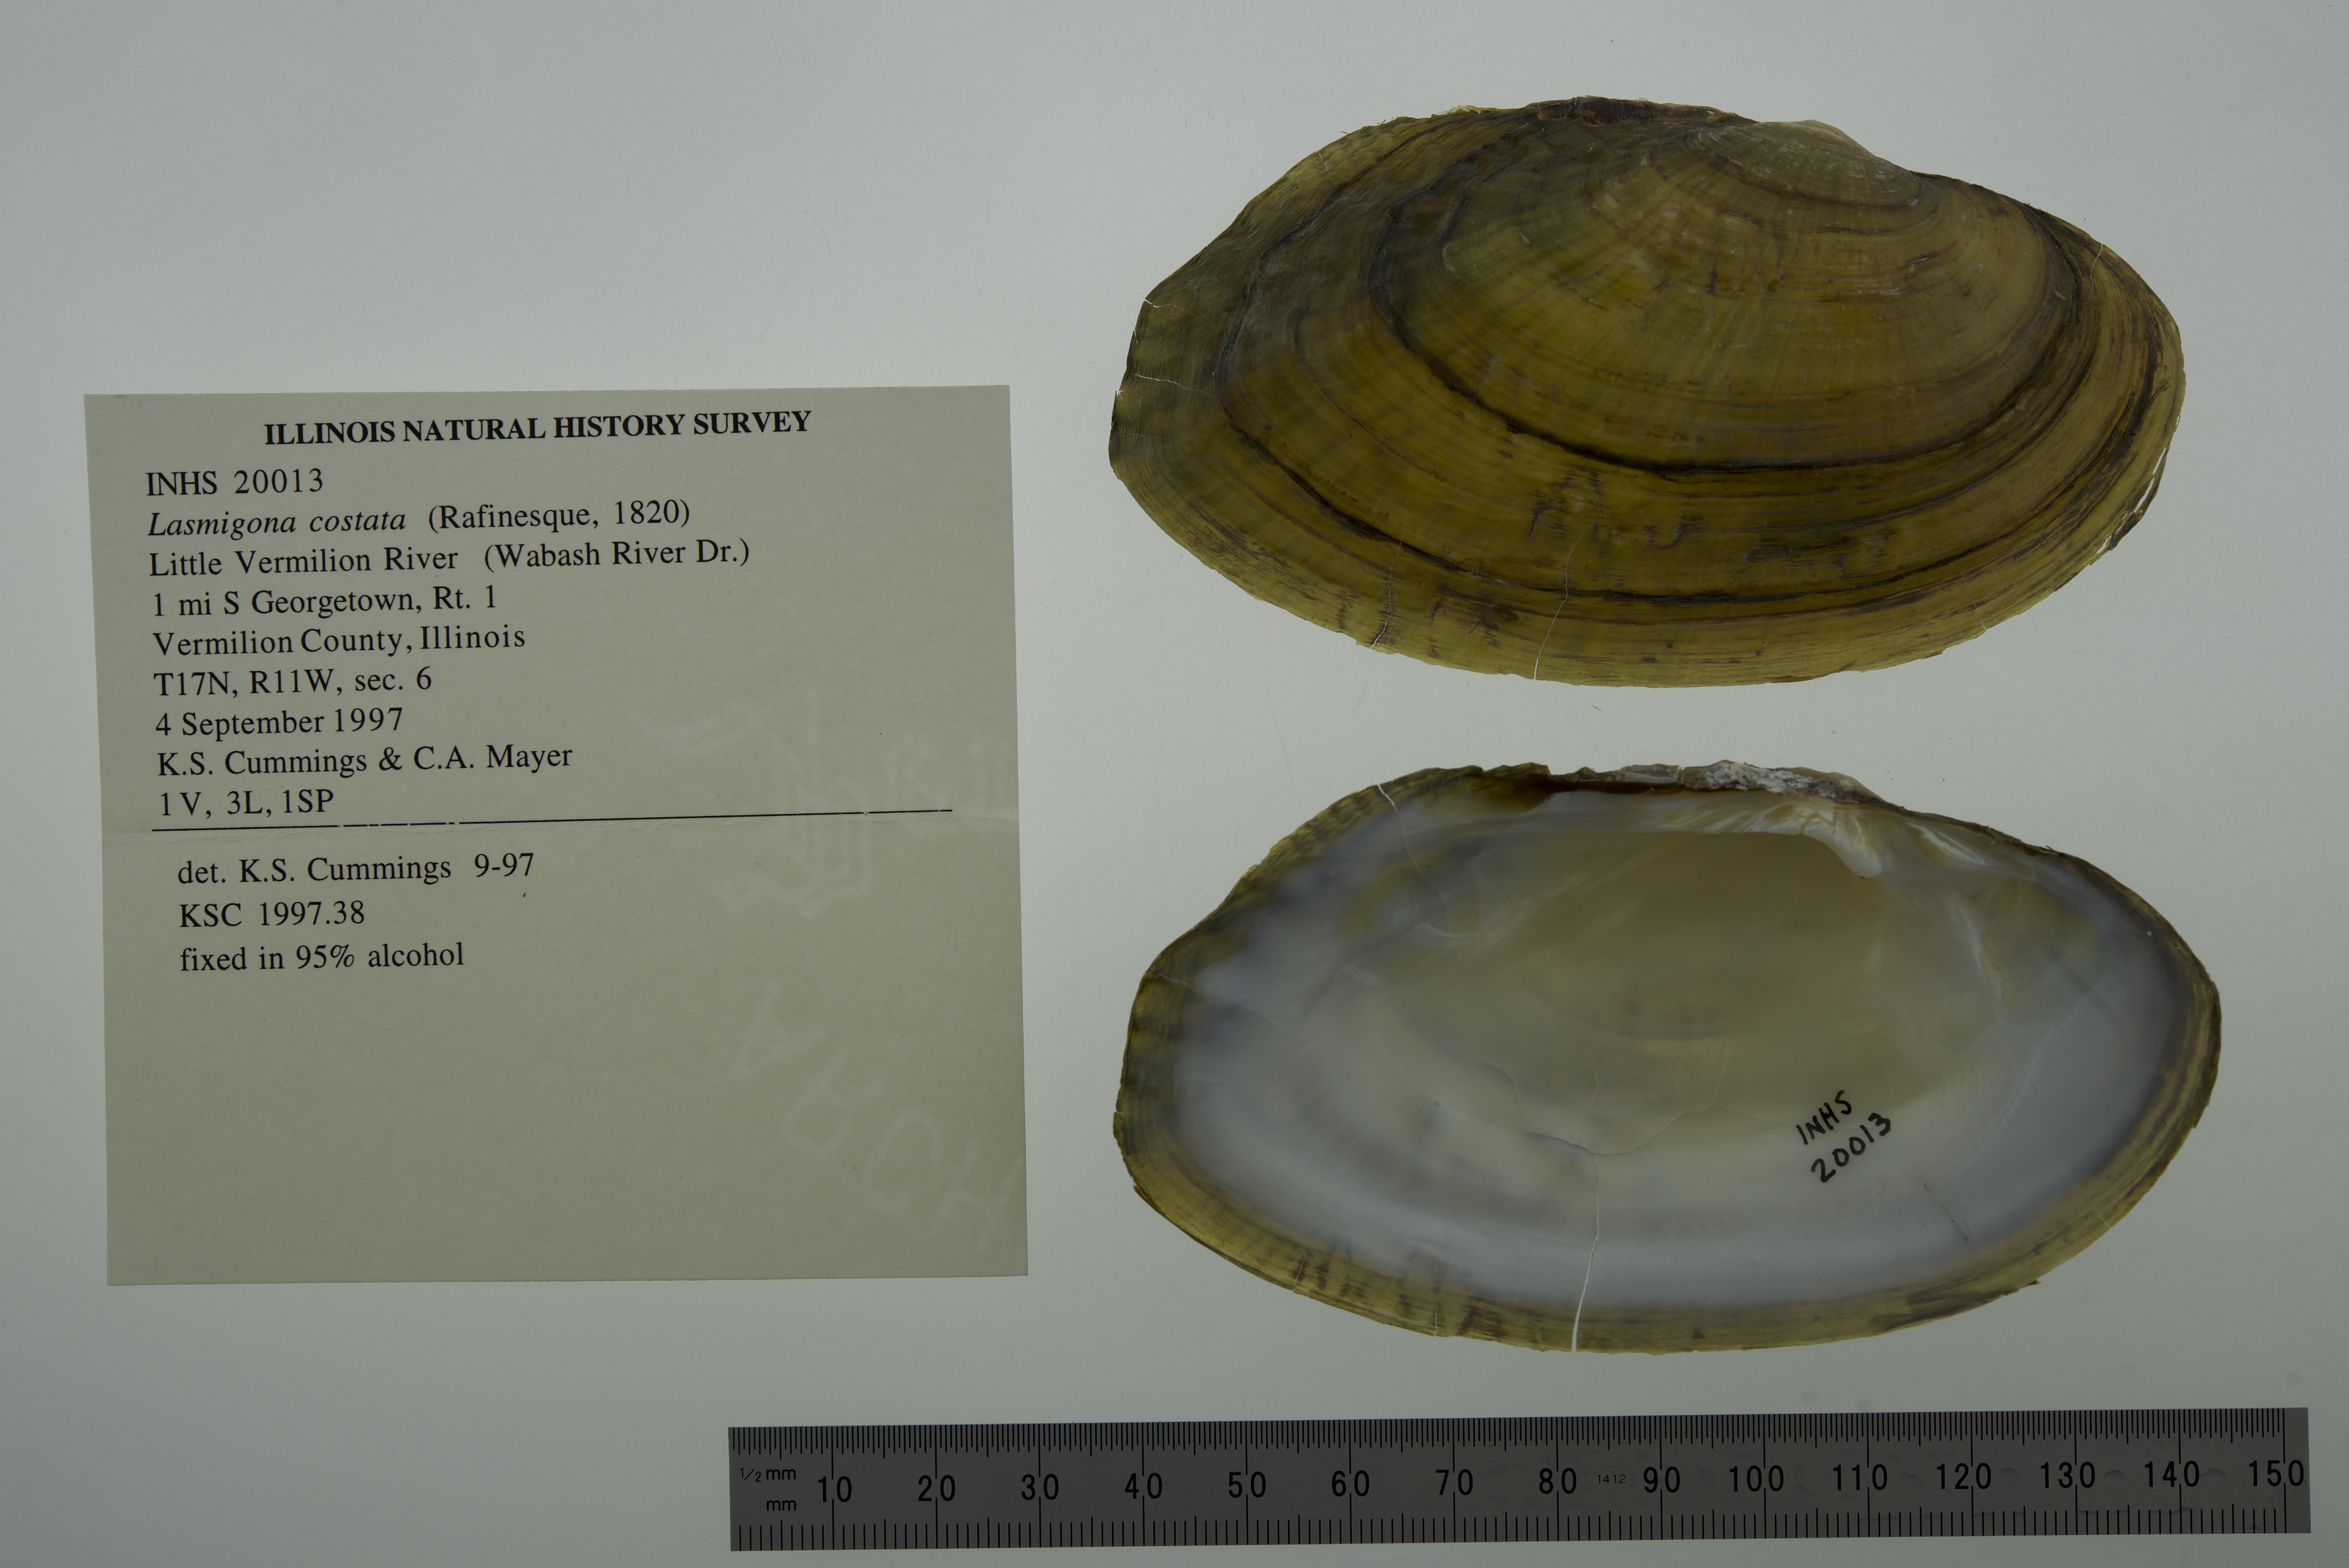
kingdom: Animalia
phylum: Mollusca
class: Bivalvia
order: Unionida
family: Unionidae
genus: Lasmigona
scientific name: Lasmigona costata
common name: Flutedshell
